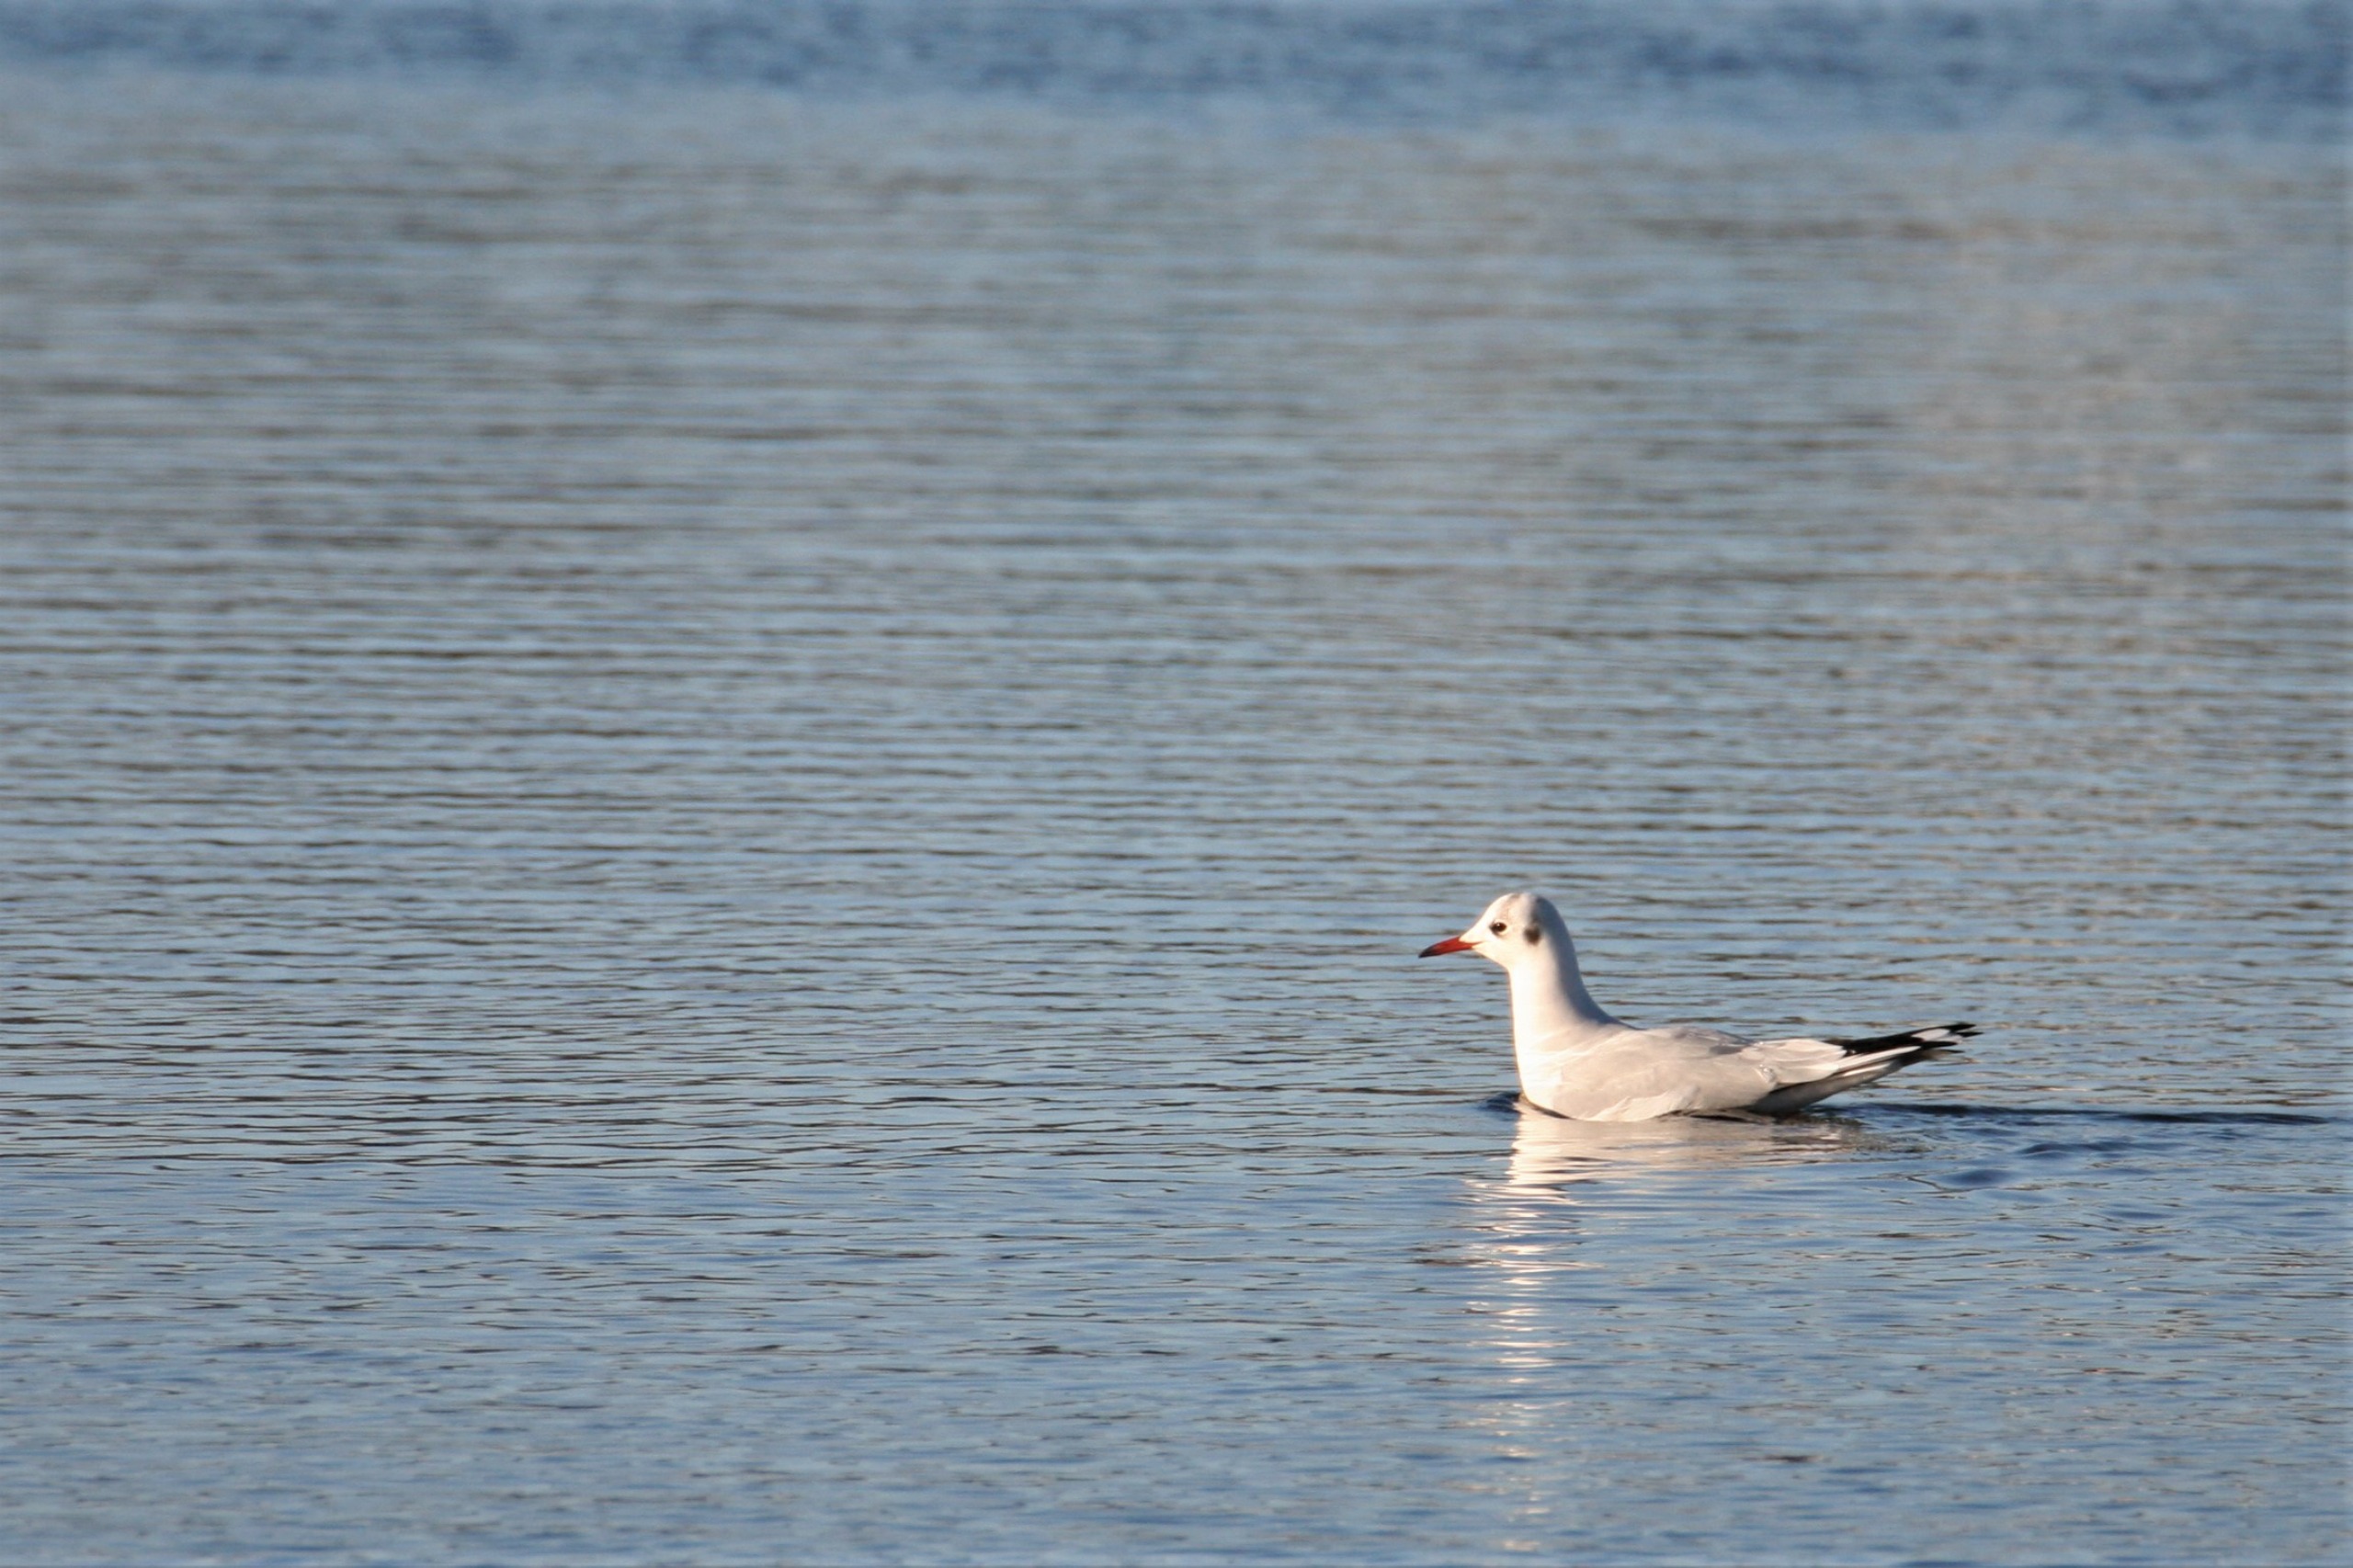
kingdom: Animalia
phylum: Chordata
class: Aves
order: Charadriiformes
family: Laridae
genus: Chroicocephalus
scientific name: Chroicocephalus ridibundus
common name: Hættemåge
